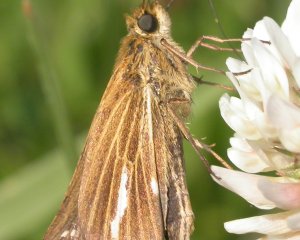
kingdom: Animalia
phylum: Arthropoda
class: Insecta
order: Lepidoptera
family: Hesperiidae
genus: Panoquina
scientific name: Panoquina panoquin
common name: Salt Marsh Skipper
